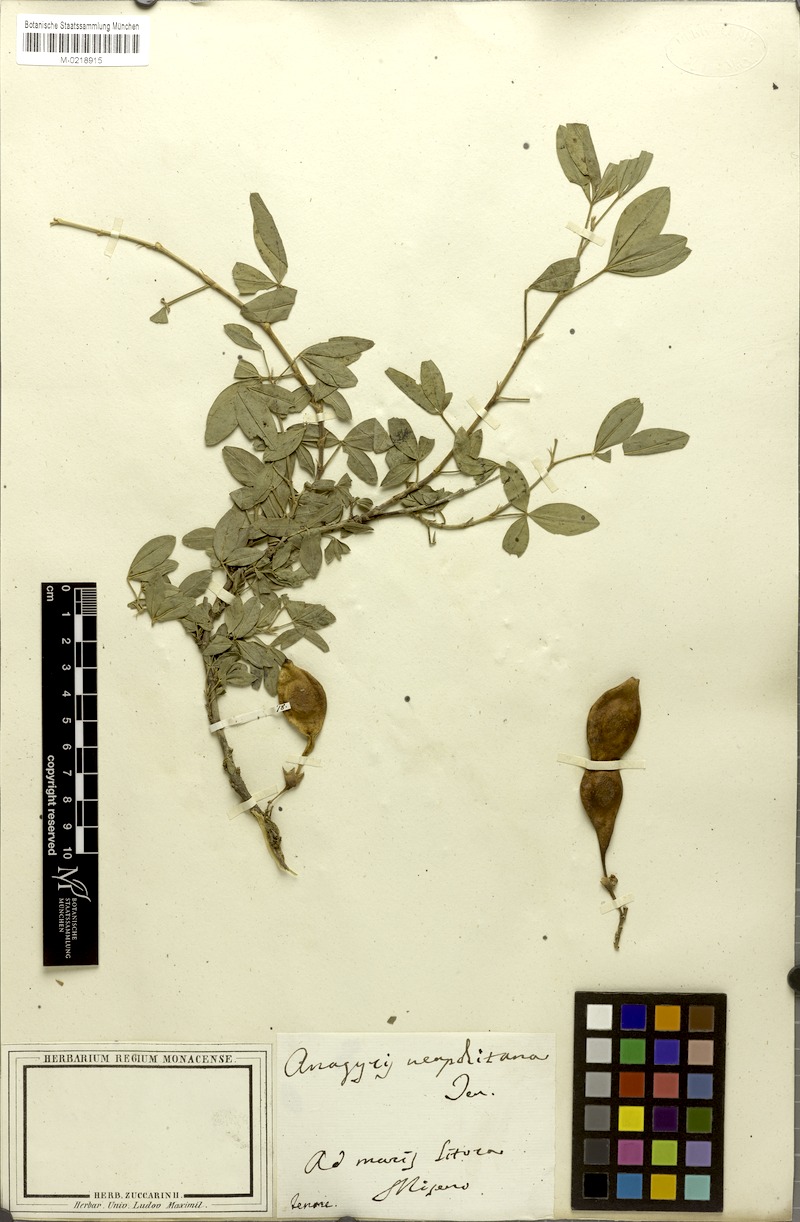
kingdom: Plantae
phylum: Tracheophyta
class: Magnoliopsida
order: Fabales
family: Fabaceae
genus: Anagyris
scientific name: Anagyris foetida
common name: Stinking bean trefoil
